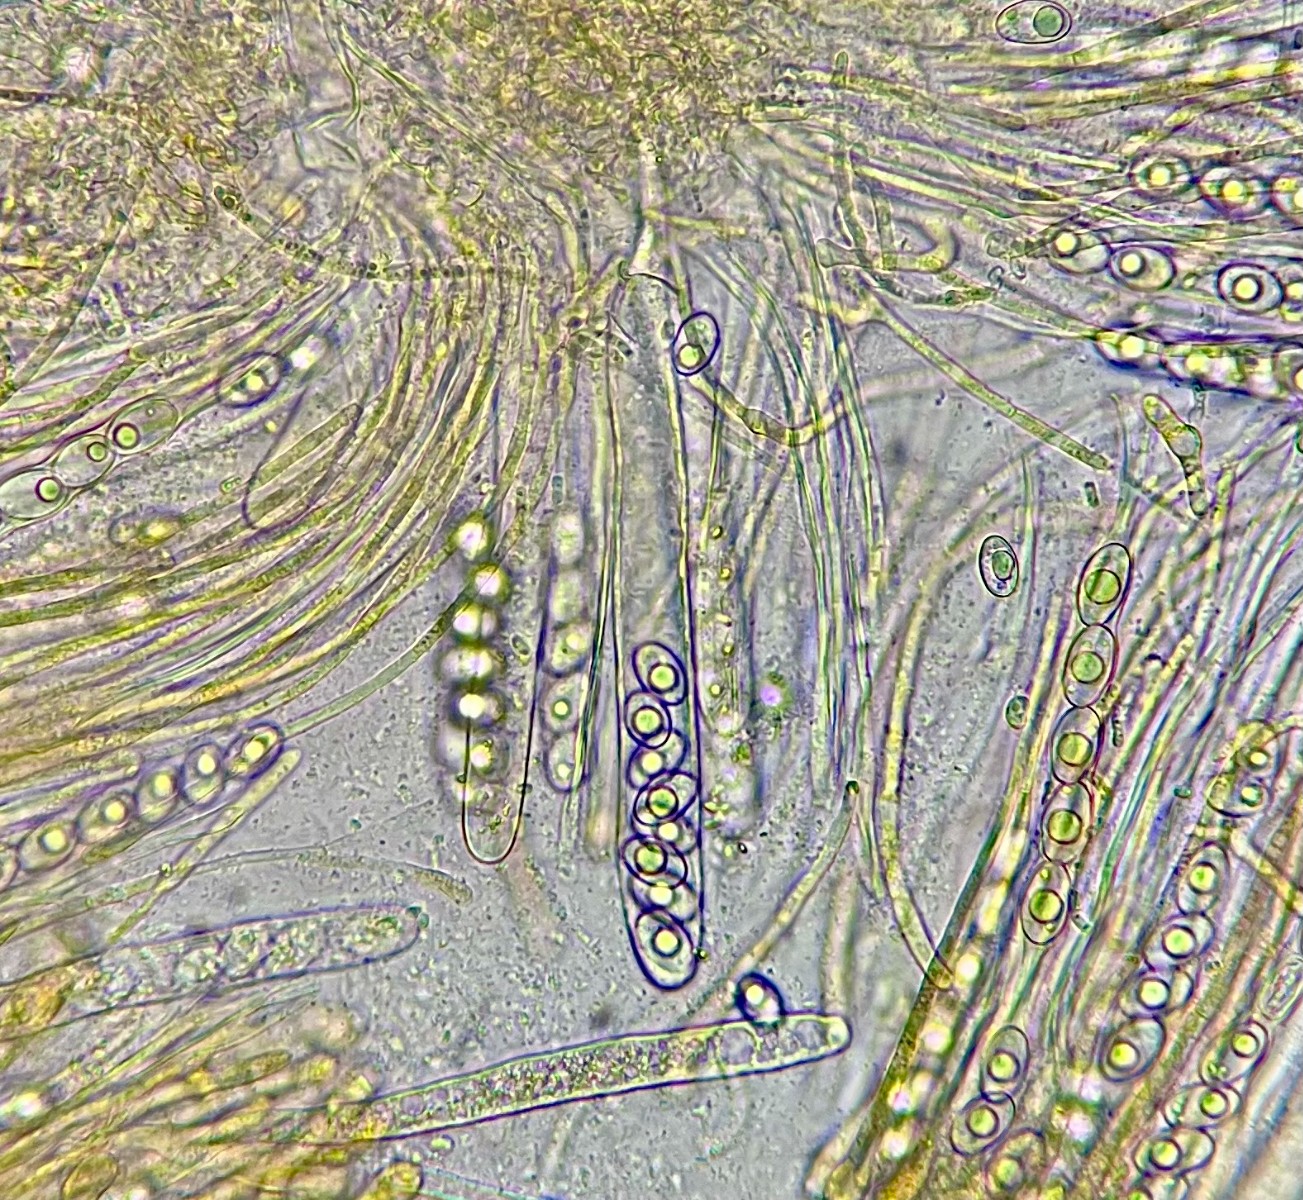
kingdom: Fungi
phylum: Ascomycota
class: Pezizomycetes
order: Pezizales
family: Pyronemataceae
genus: Inermisia
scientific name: Inermisia gyalectoides
